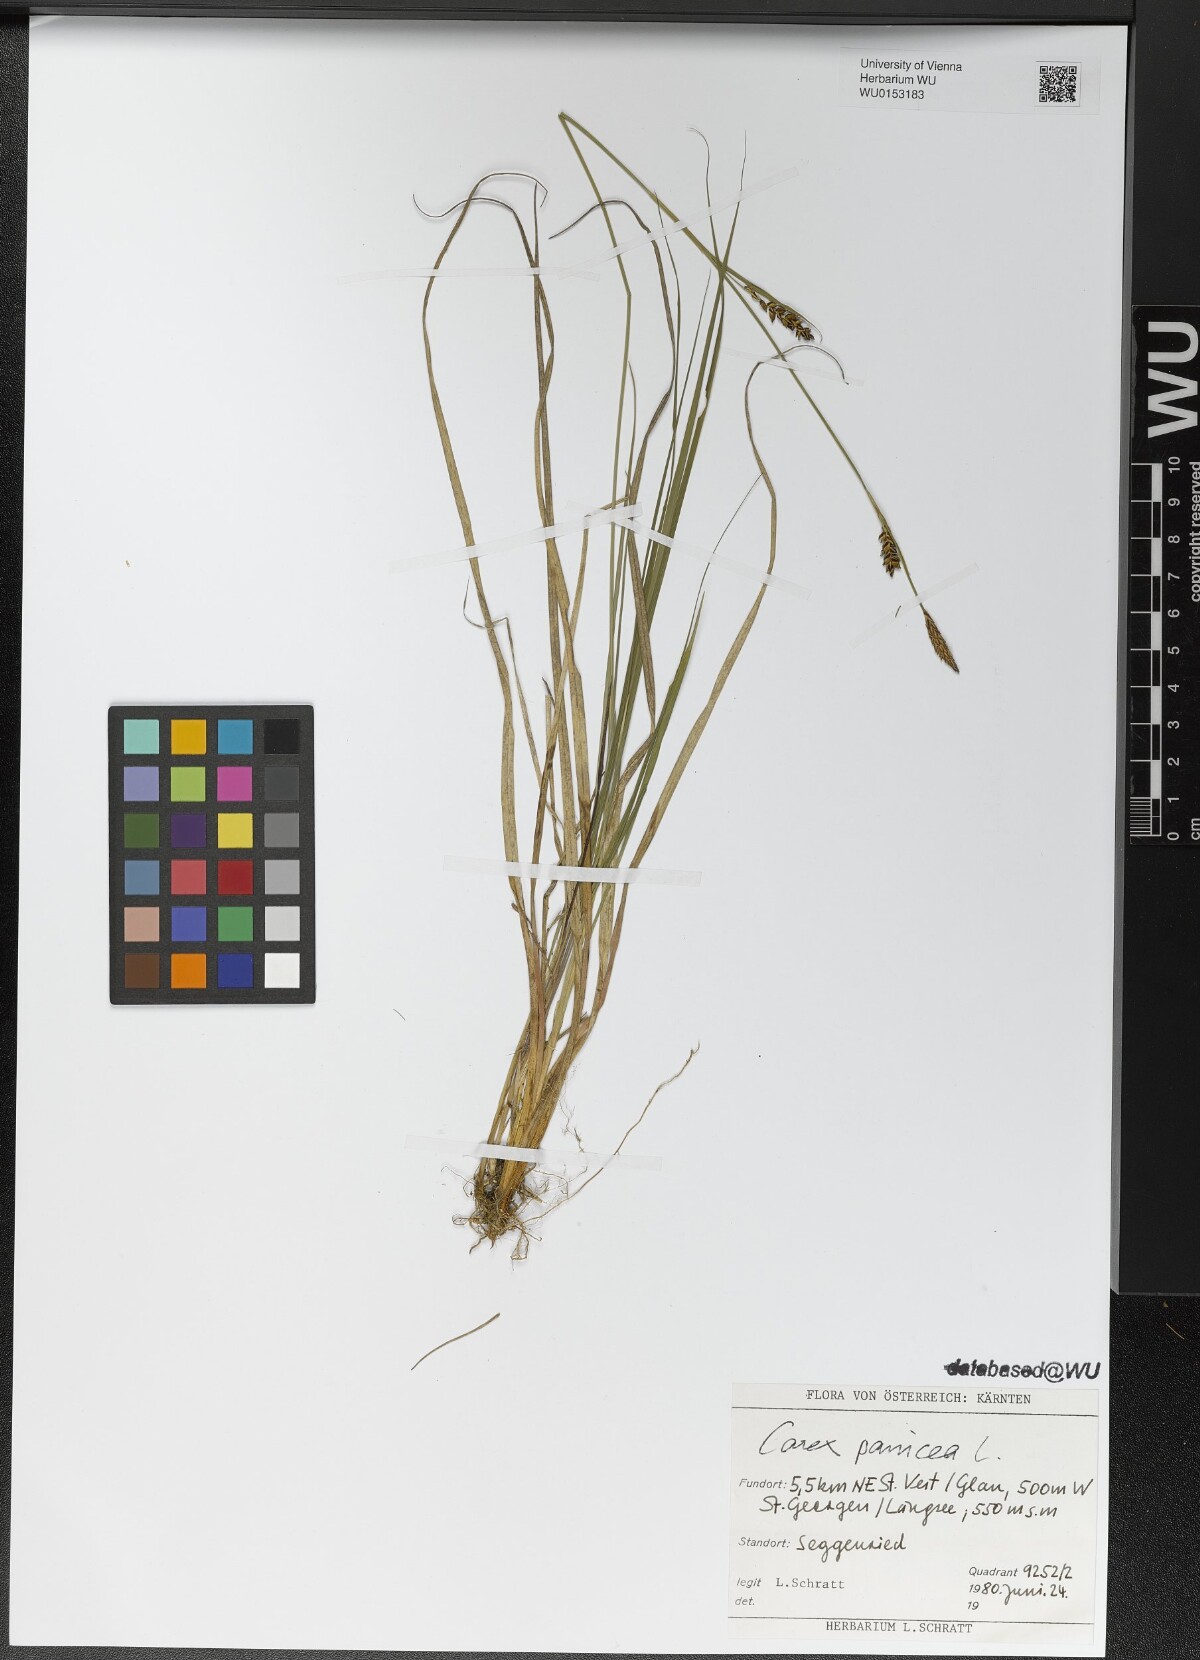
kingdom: Plantae
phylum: Tracheophyta
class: Liliopsida
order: Poales
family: Cyperaceae
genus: Carex
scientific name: Carex panicea
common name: Carnation sedge
